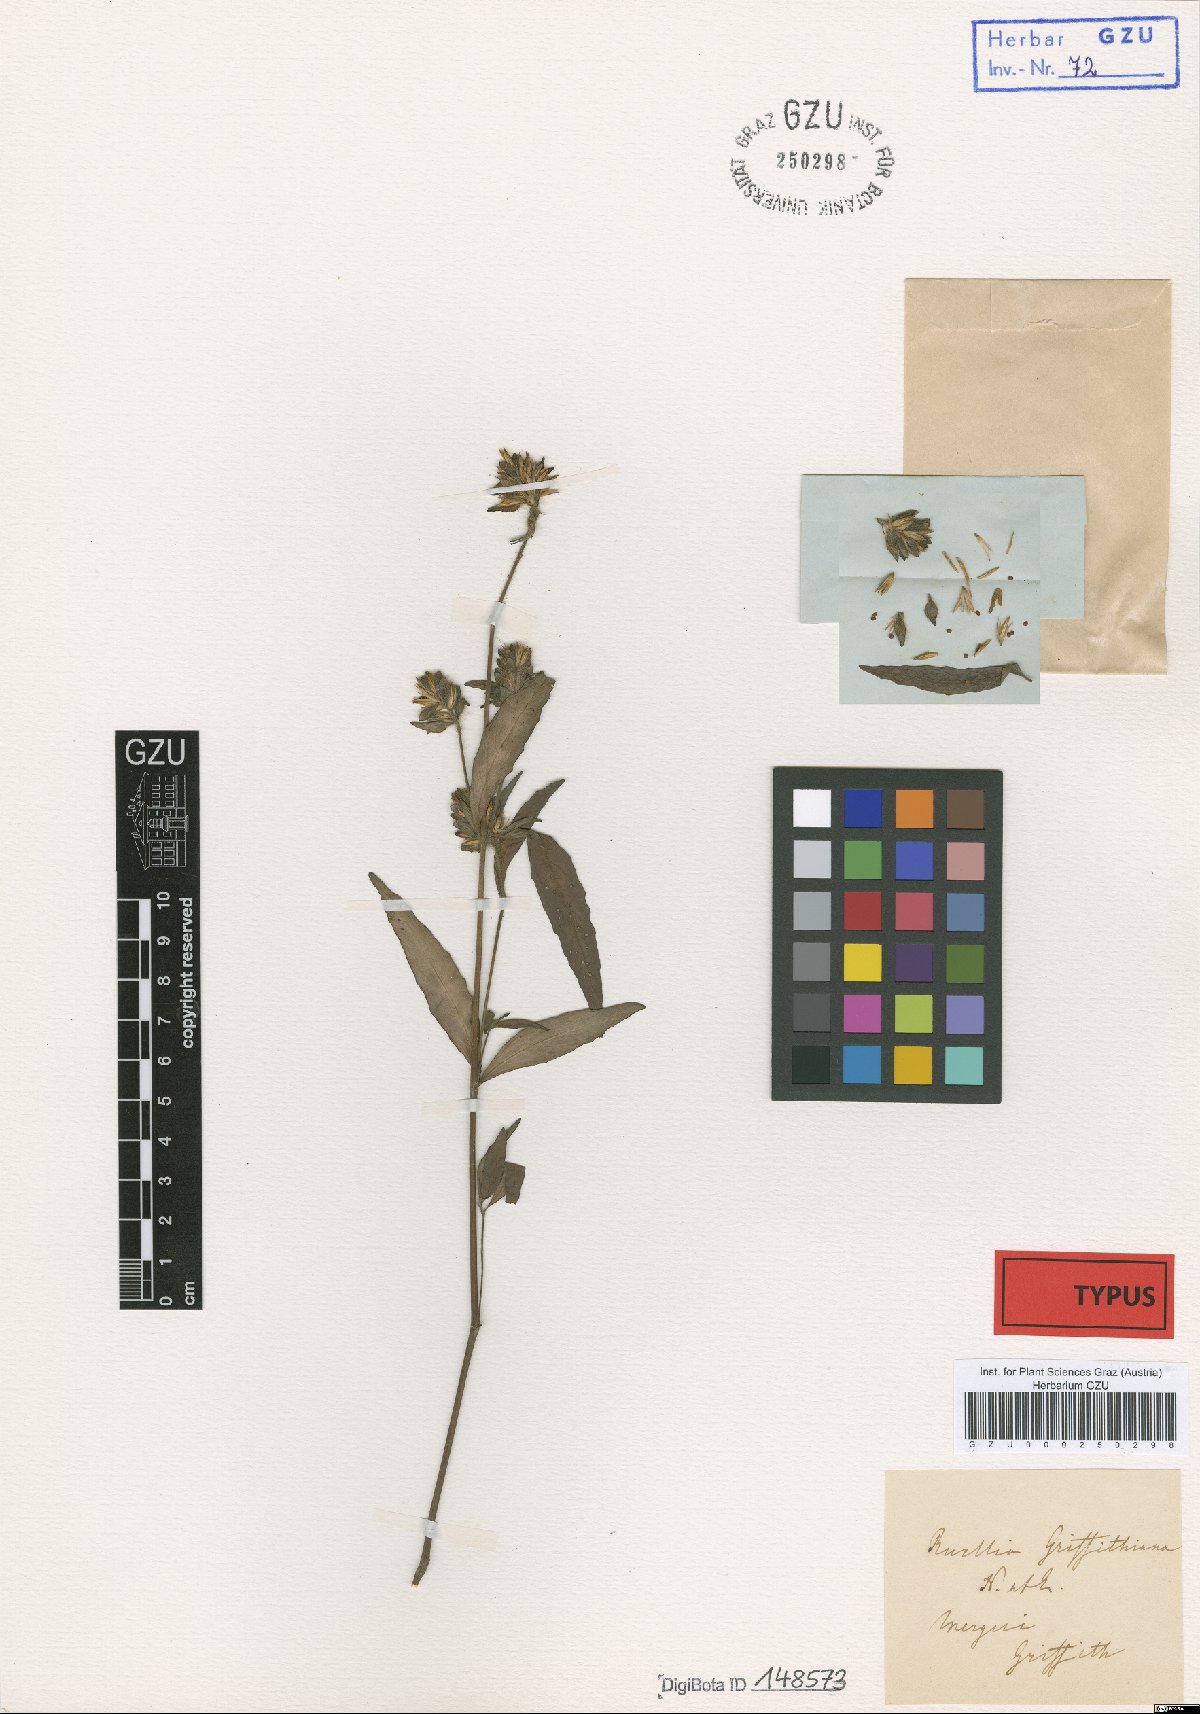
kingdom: Plantae
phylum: Tracheophyta
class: Magnoliopsida
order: Lamiales
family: Acanthaceae
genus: Strobilanthes
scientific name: Strobilanthes brunelloides
